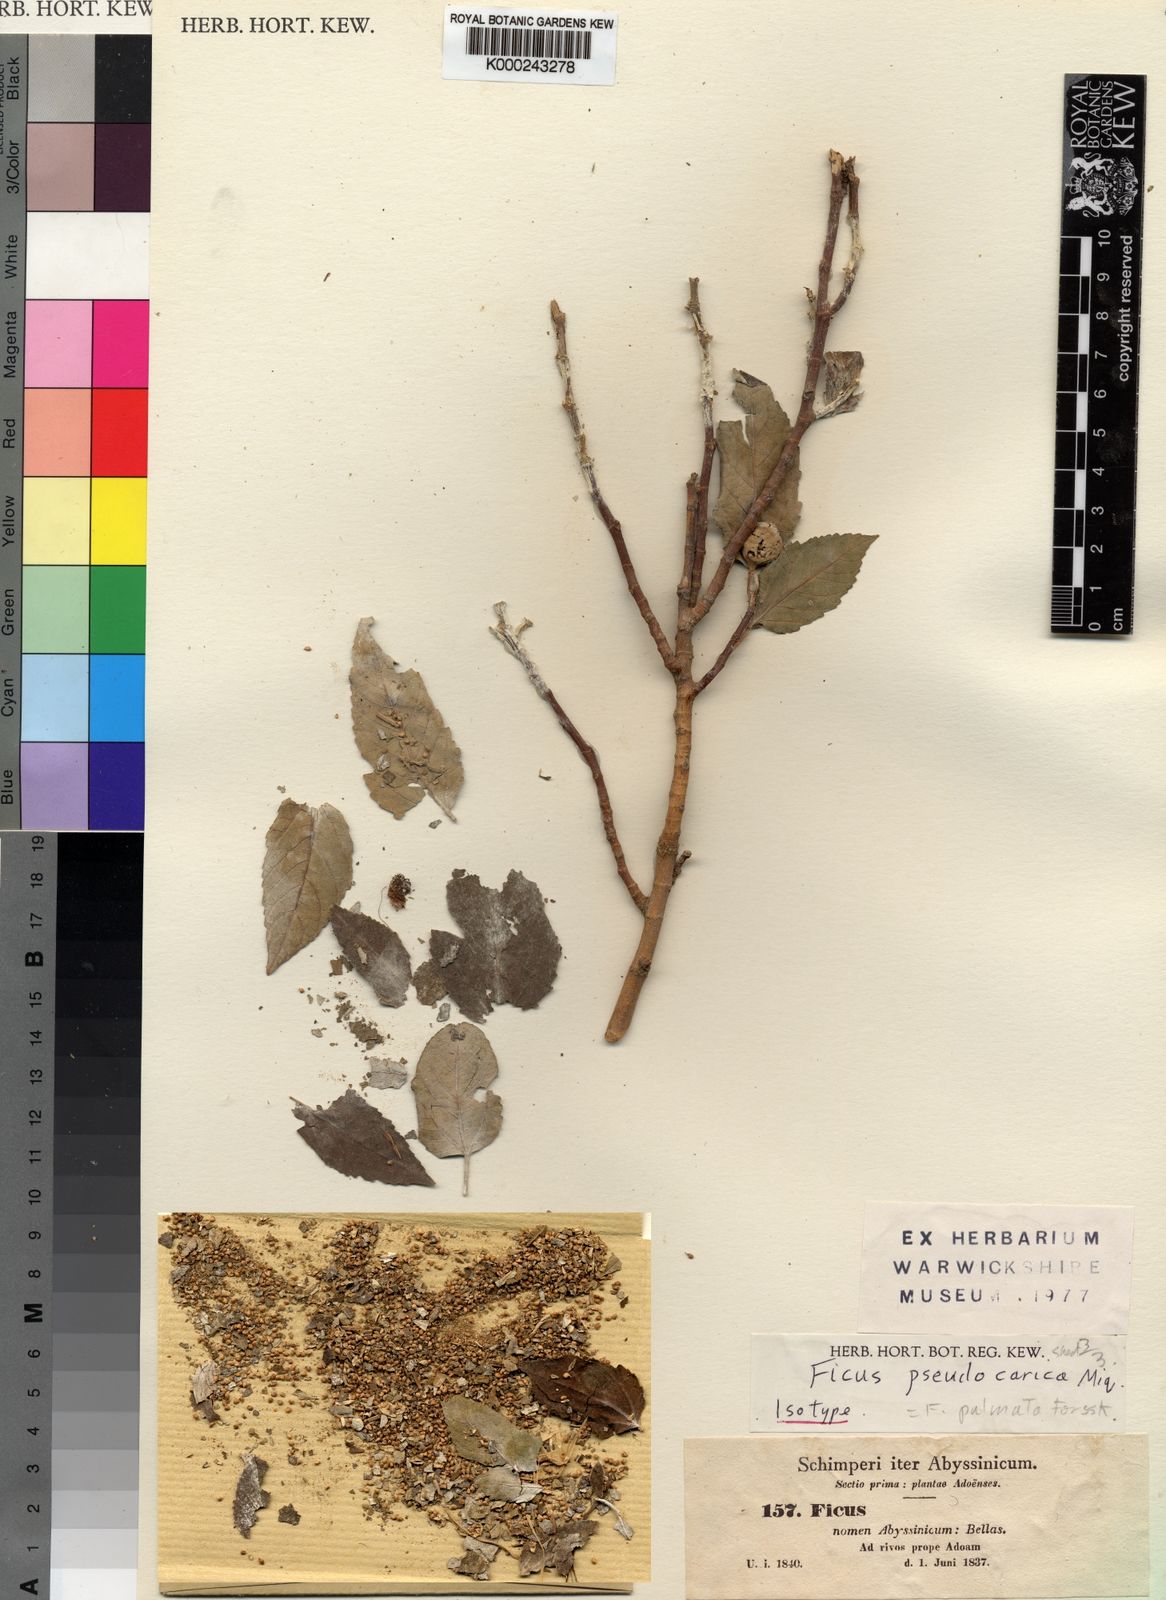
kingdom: Plantae
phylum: Tracheophyta
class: Magnoliopsida
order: Rosales
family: Moraceae
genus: Ficus
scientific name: Ficus palmata
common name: Punjab fig
